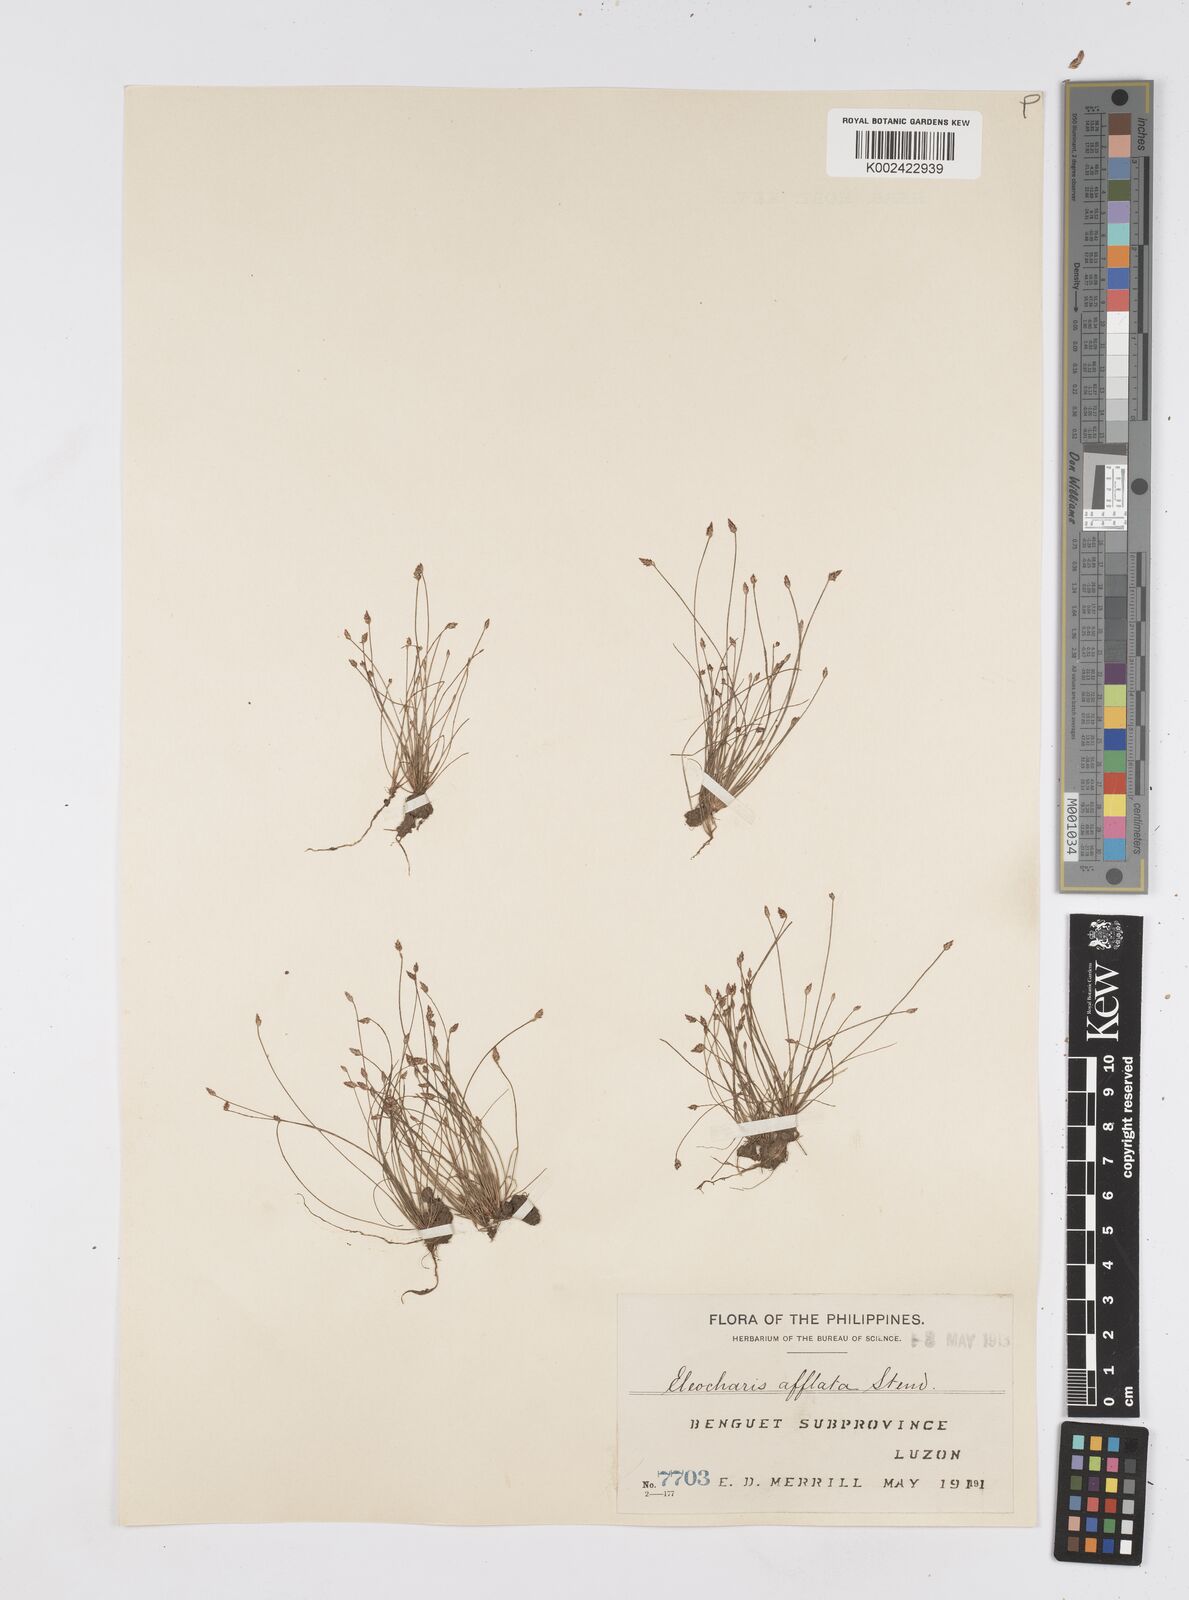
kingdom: Plantae
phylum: Tracheophyta
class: Liliopsida
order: Poales
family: Cyperaceae
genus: Eleocharis
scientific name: Eleocharis congesta
